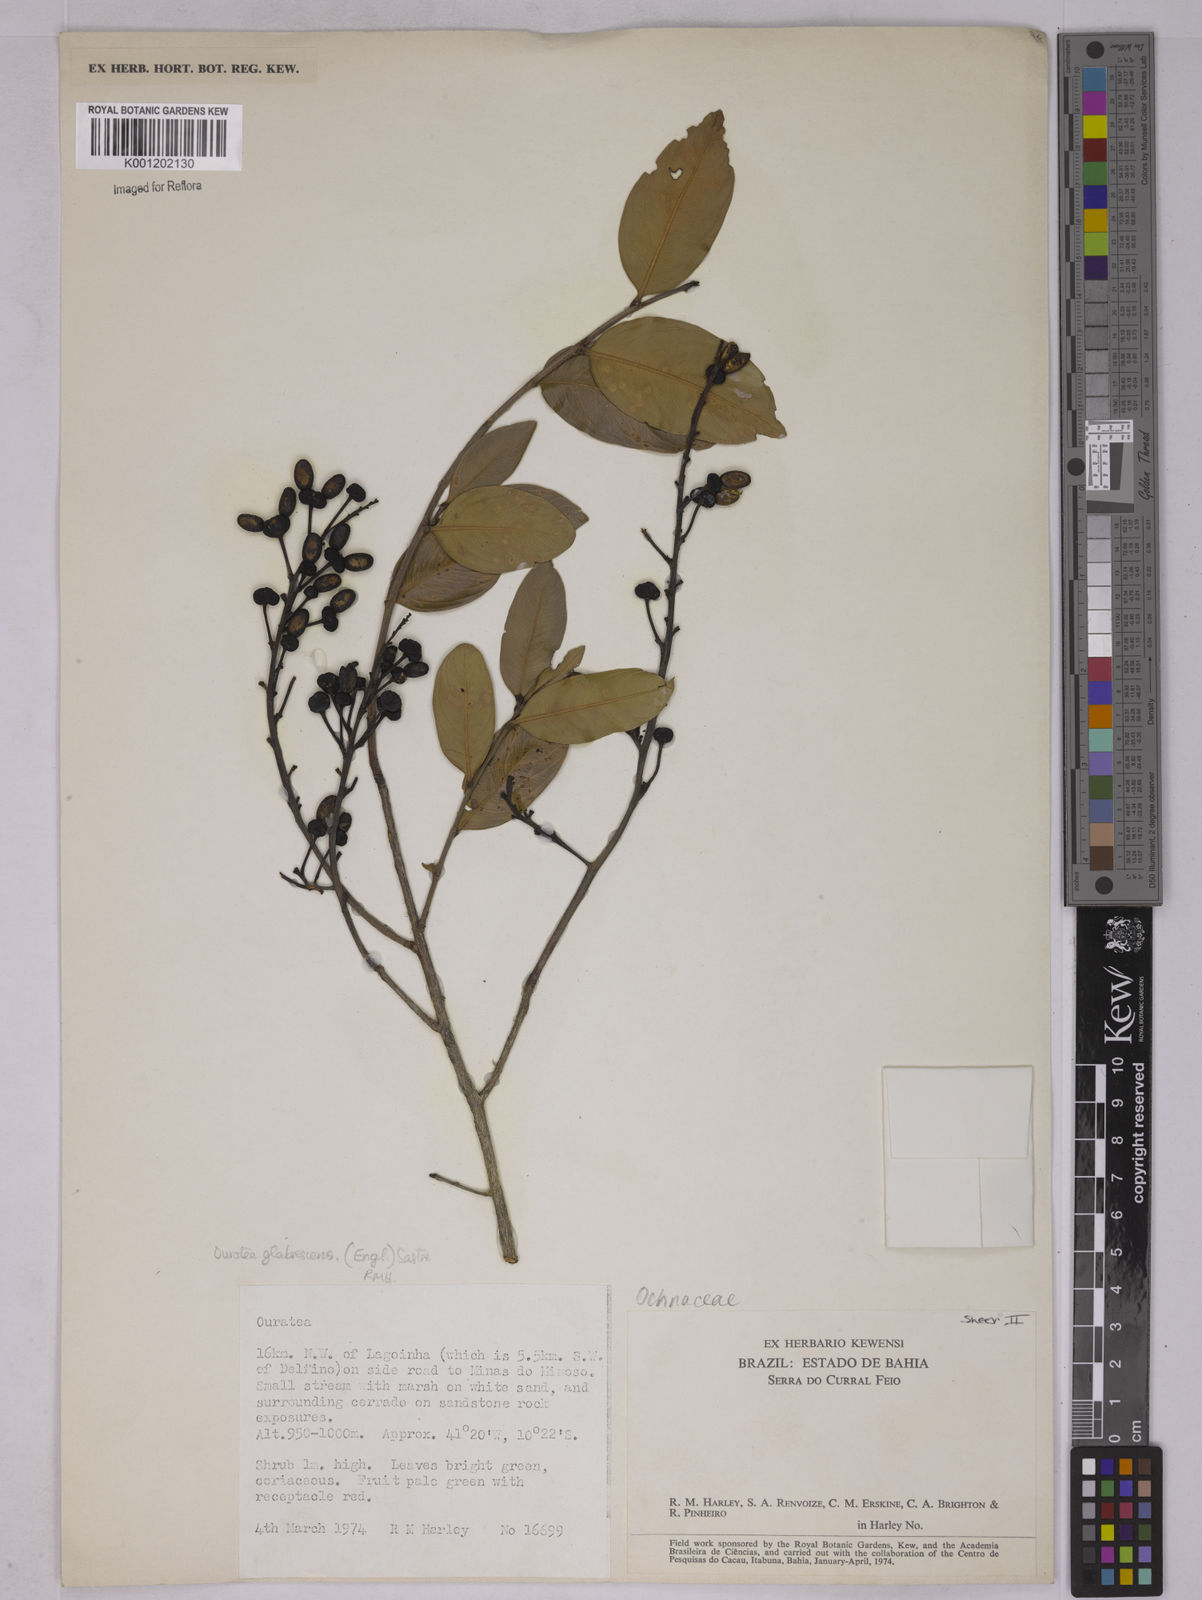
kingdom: Plantae
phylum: Tracheophyta
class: Magnoliopsida
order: Malpighiales
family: Ochnaceae
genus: Ouratea
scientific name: Ouratea
